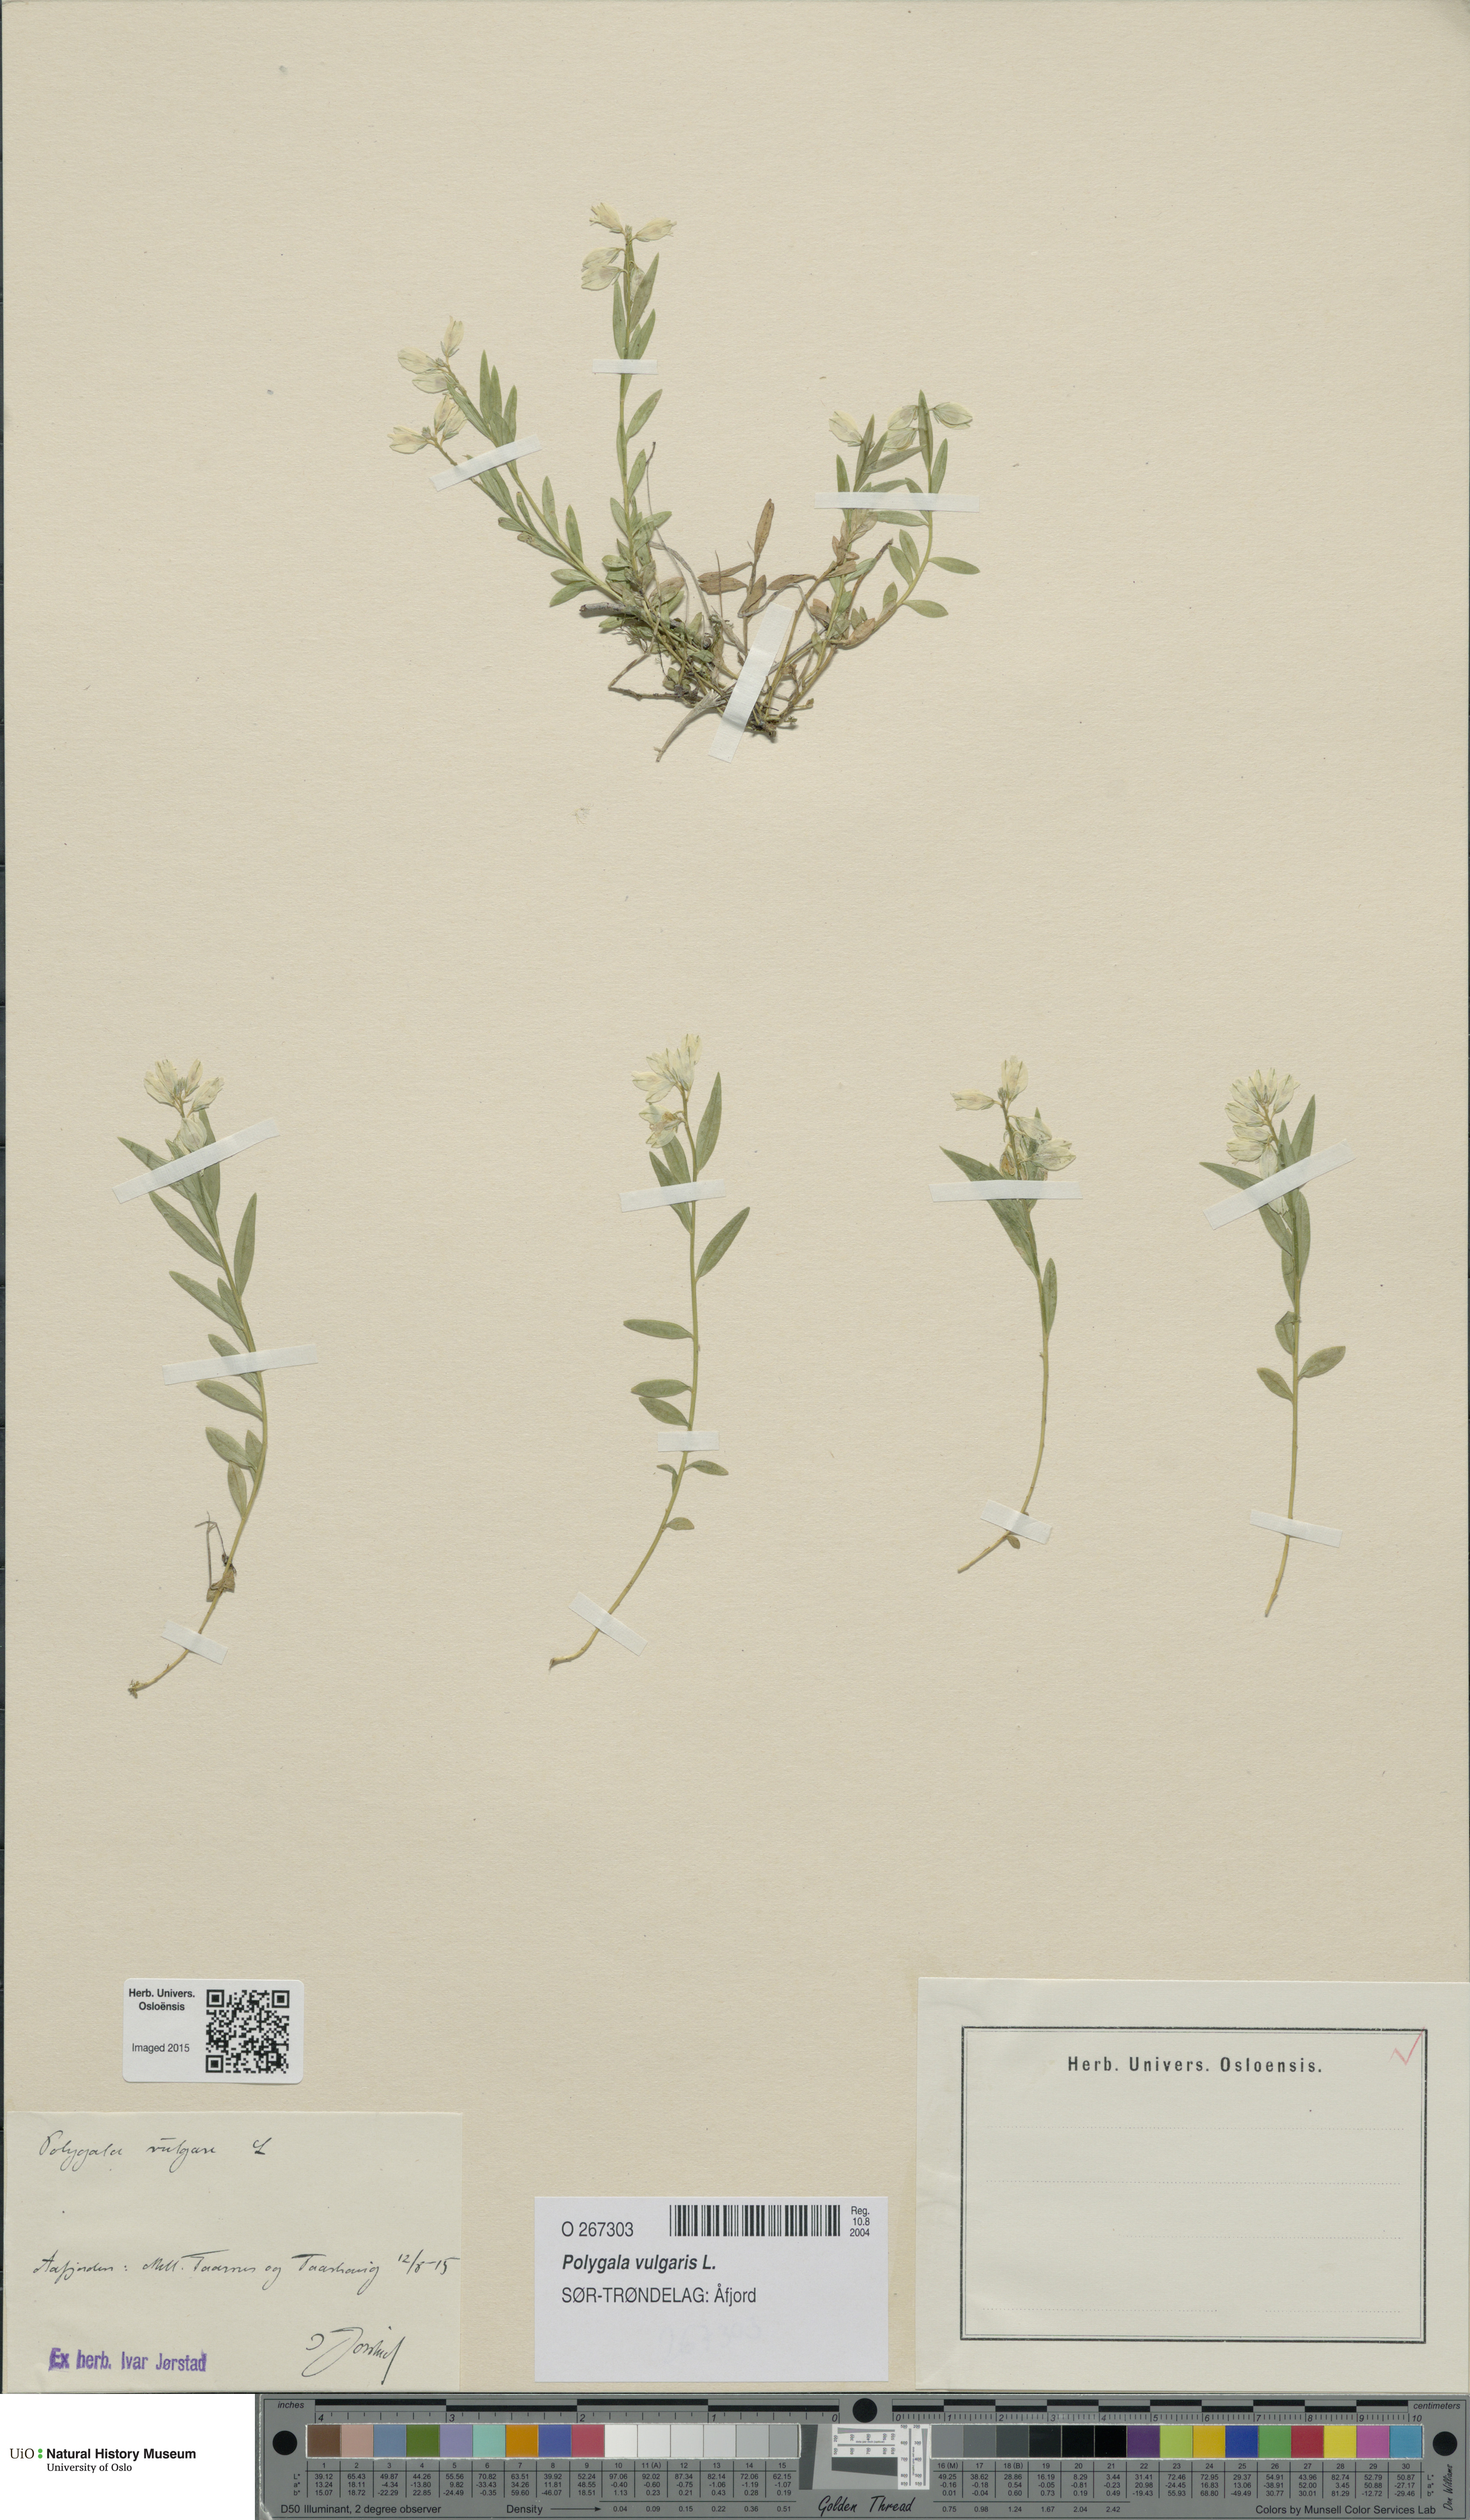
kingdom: Plantae
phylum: Tracheophyta
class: Magnoliopsida
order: Fabales
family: Polygalaceae
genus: Polygala
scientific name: Polygala vulgaris
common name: Common milkwort
